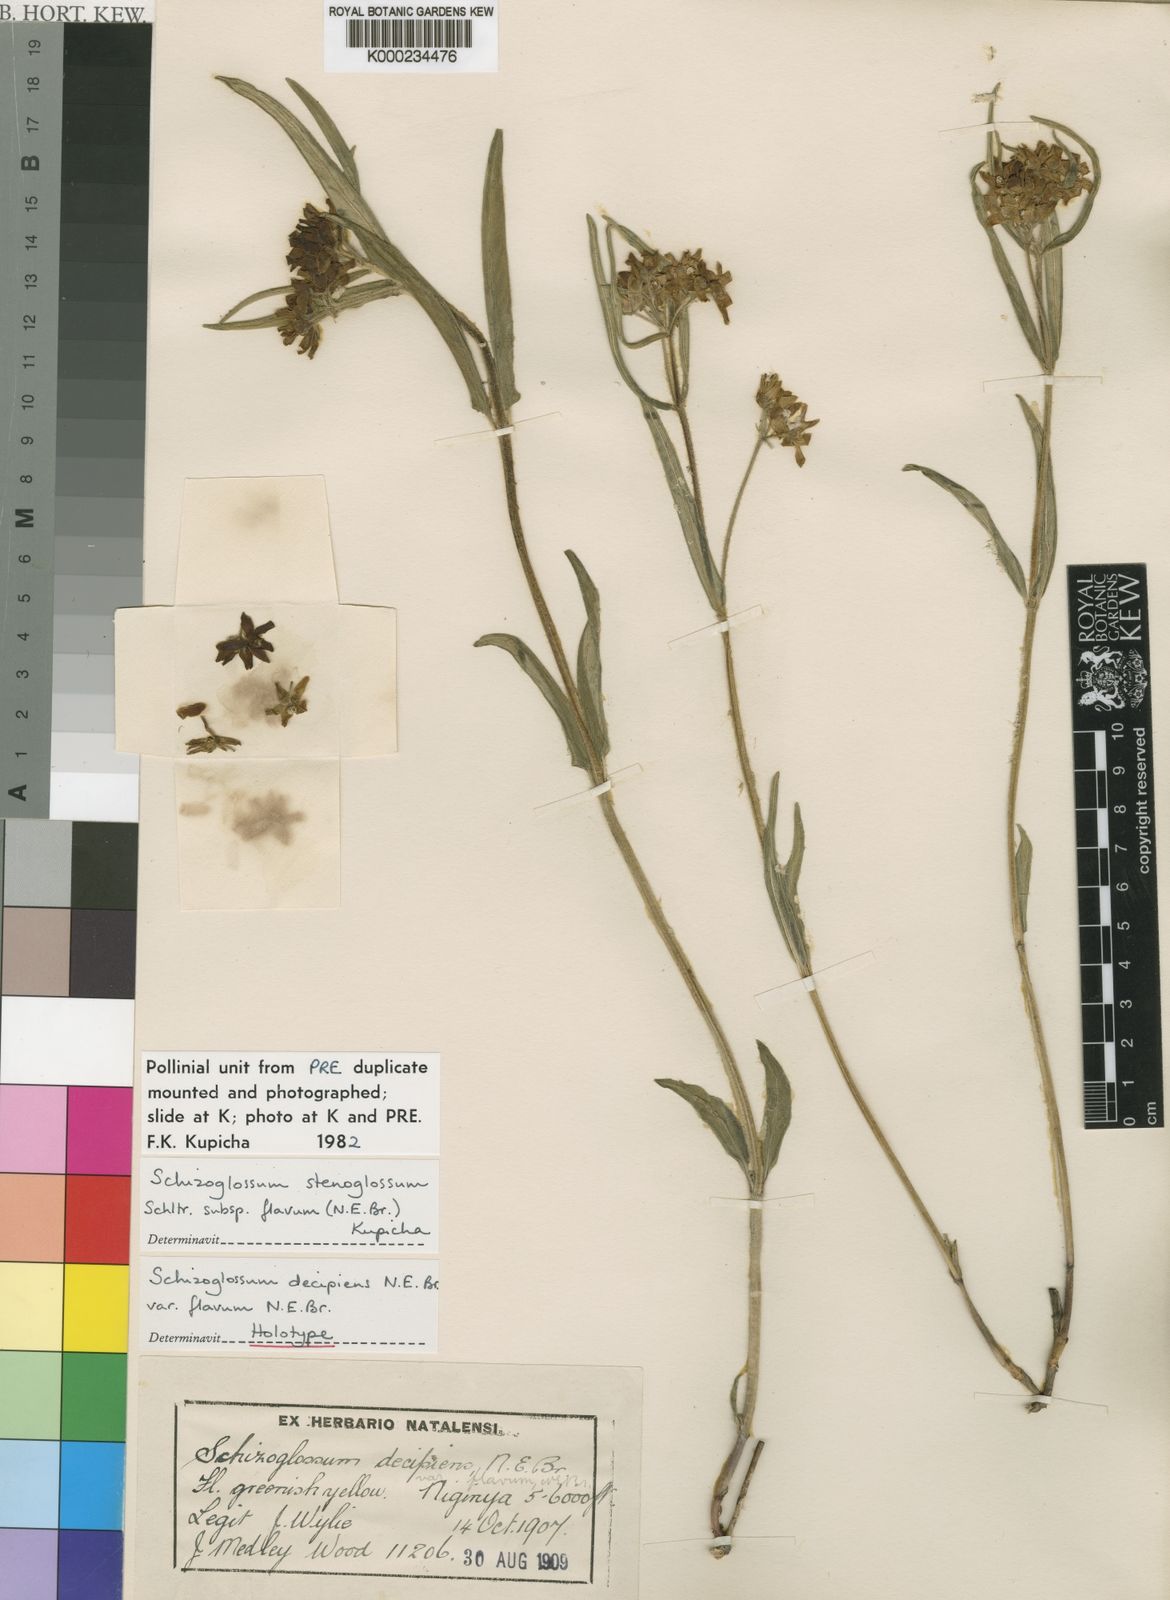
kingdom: Plantae
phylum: Tracheophyta
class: Magnoliopsida
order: Gentianales
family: Apocynaceae
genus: Schizoglossum
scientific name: Schizoglossum stenoglossum
